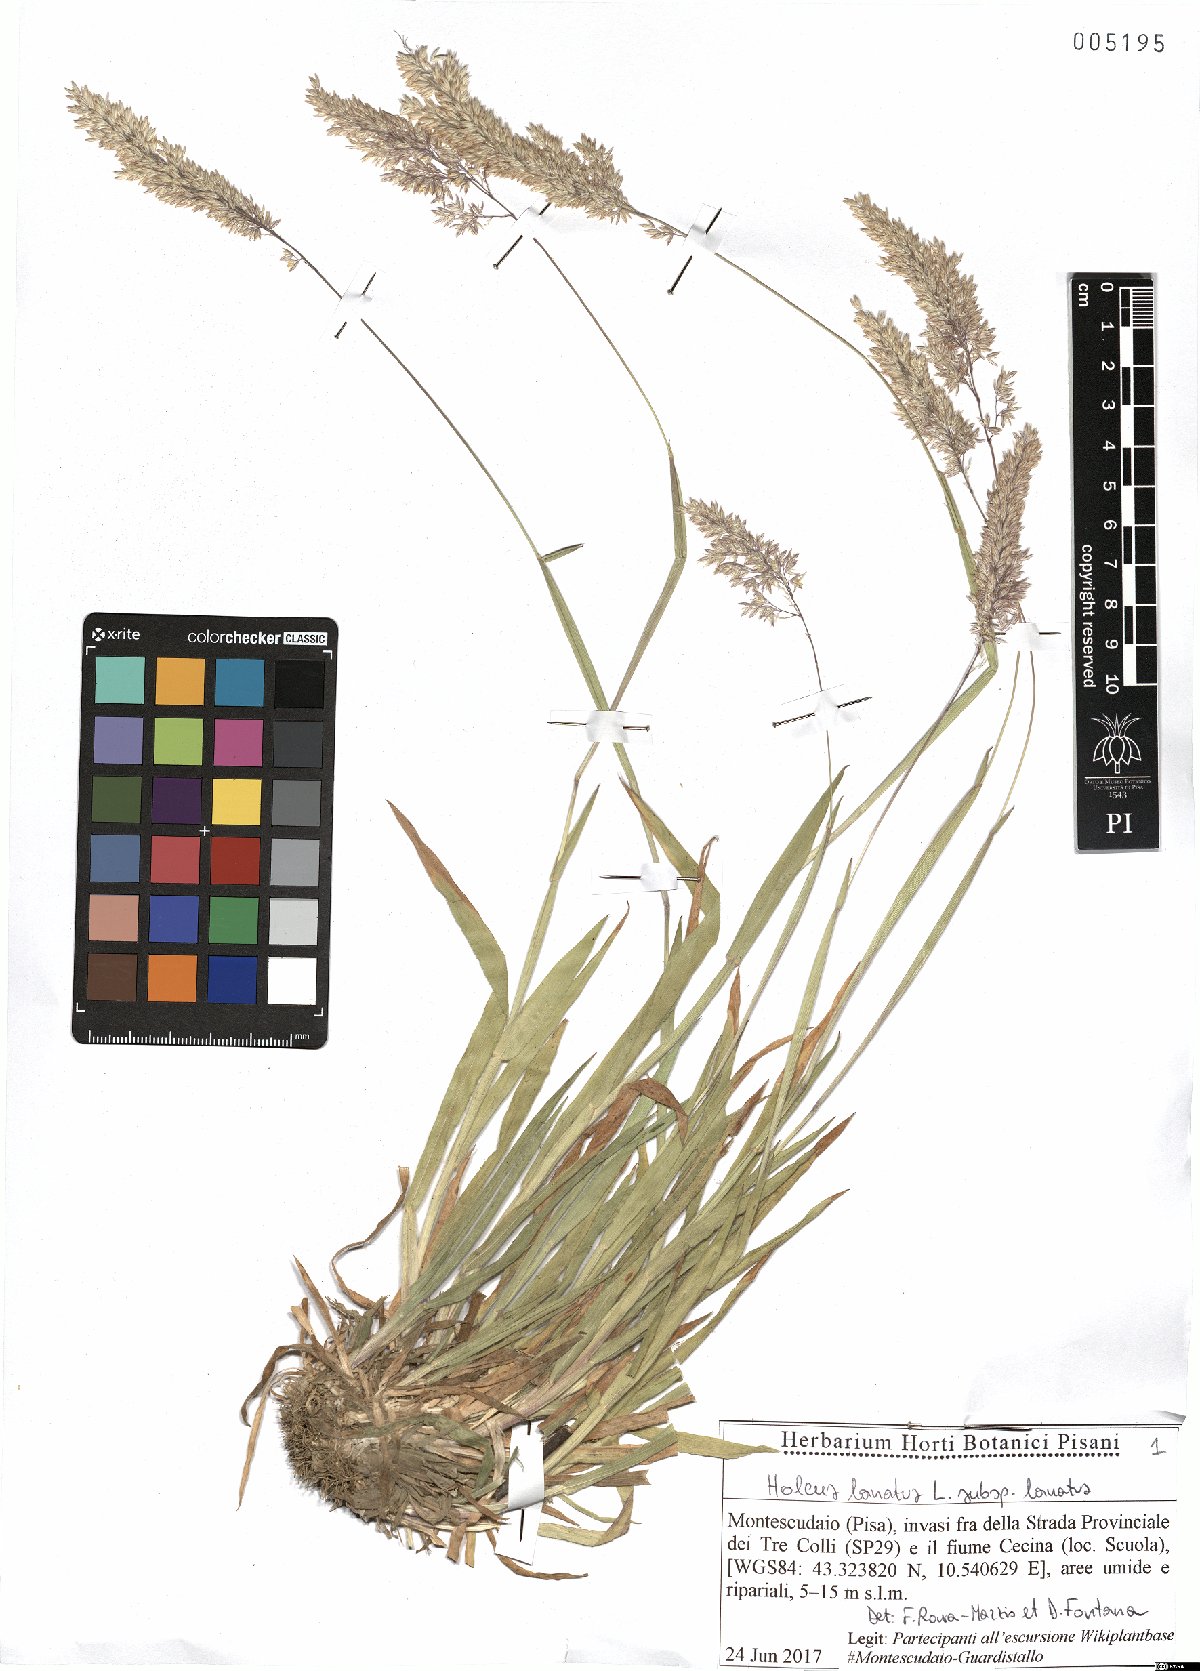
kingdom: Plantae
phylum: Tracheophyta
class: Liliopsida
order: Poales
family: Poaceae
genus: Holcus
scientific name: Holcus lanatus
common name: Yorkshire-fog
